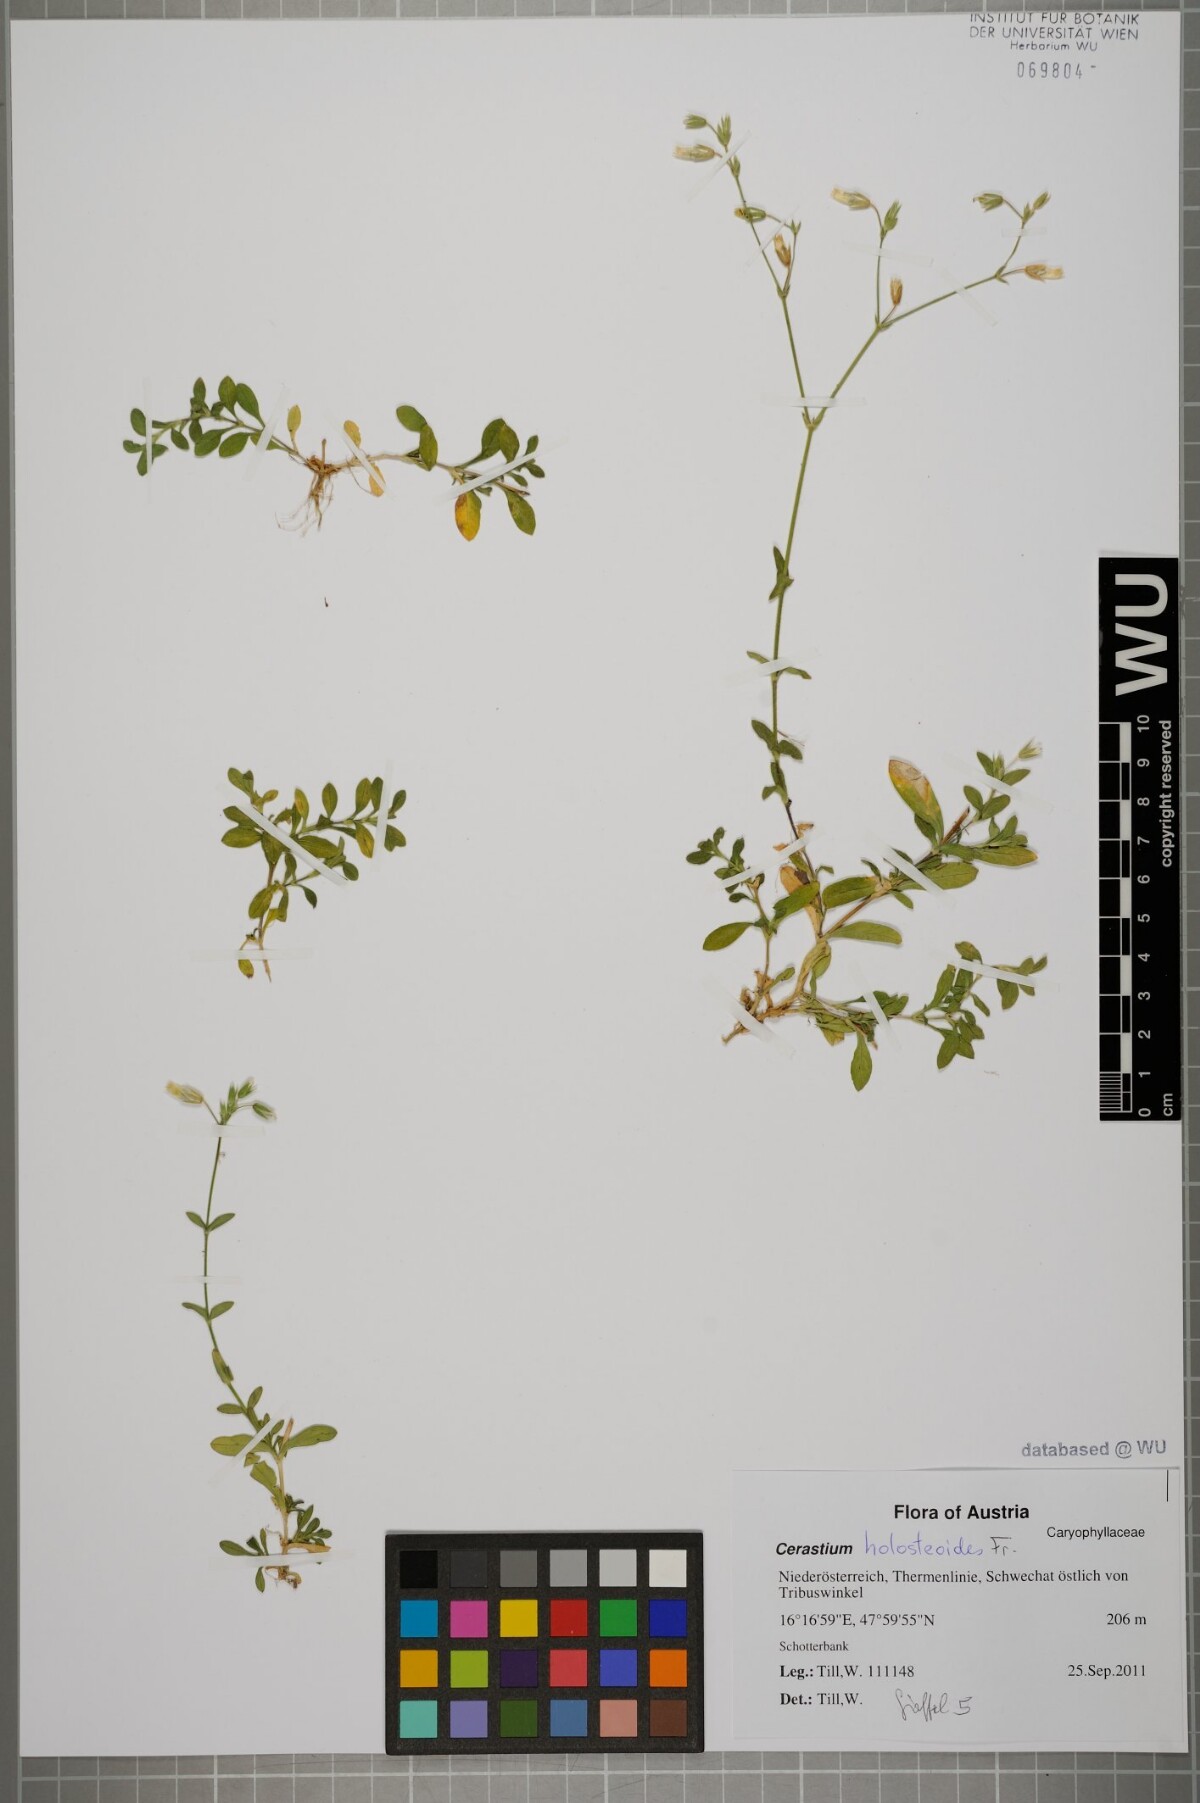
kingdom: Plantae
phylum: Tracheophyta
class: Magnoliopsida
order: Caryophyllales
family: Caryophyllaceae
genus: Cerastium
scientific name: Cerastium holosteoides
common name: Big chickweed
